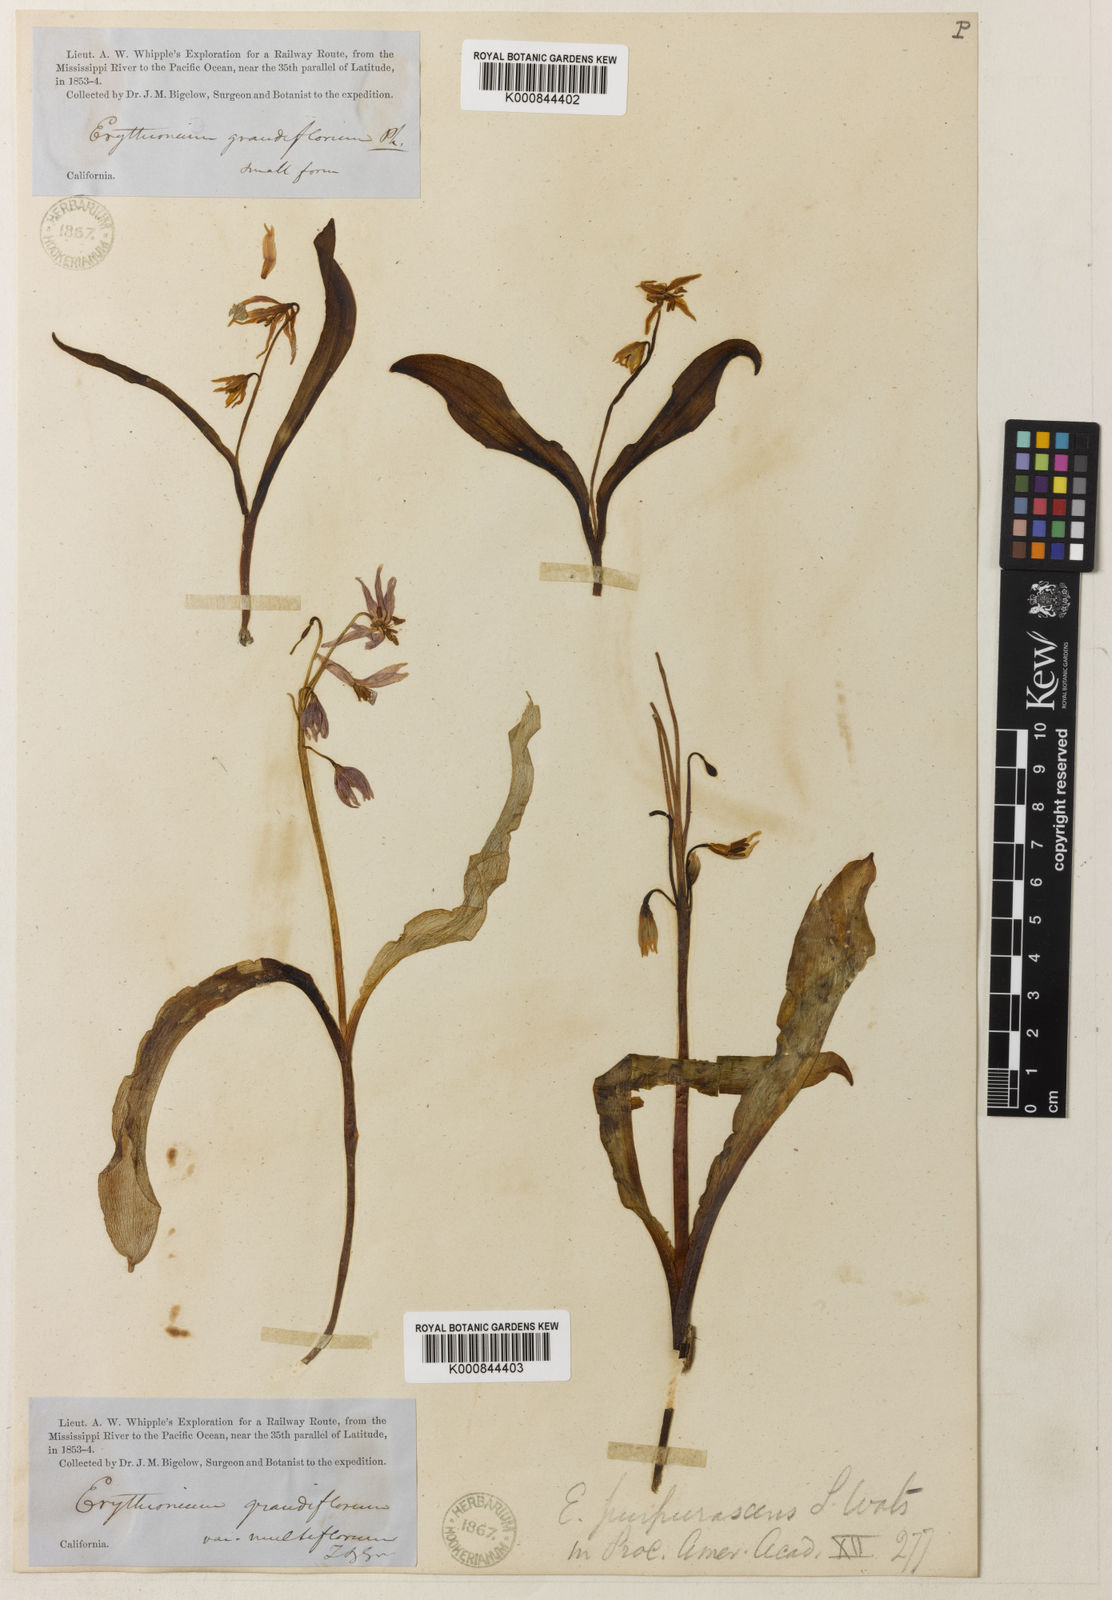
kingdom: Plantae
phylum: Tracheophyta
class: Liliopsida
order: Liliales
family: Liliaceae
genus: Erythronium
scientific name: Erythronium purpurascens
